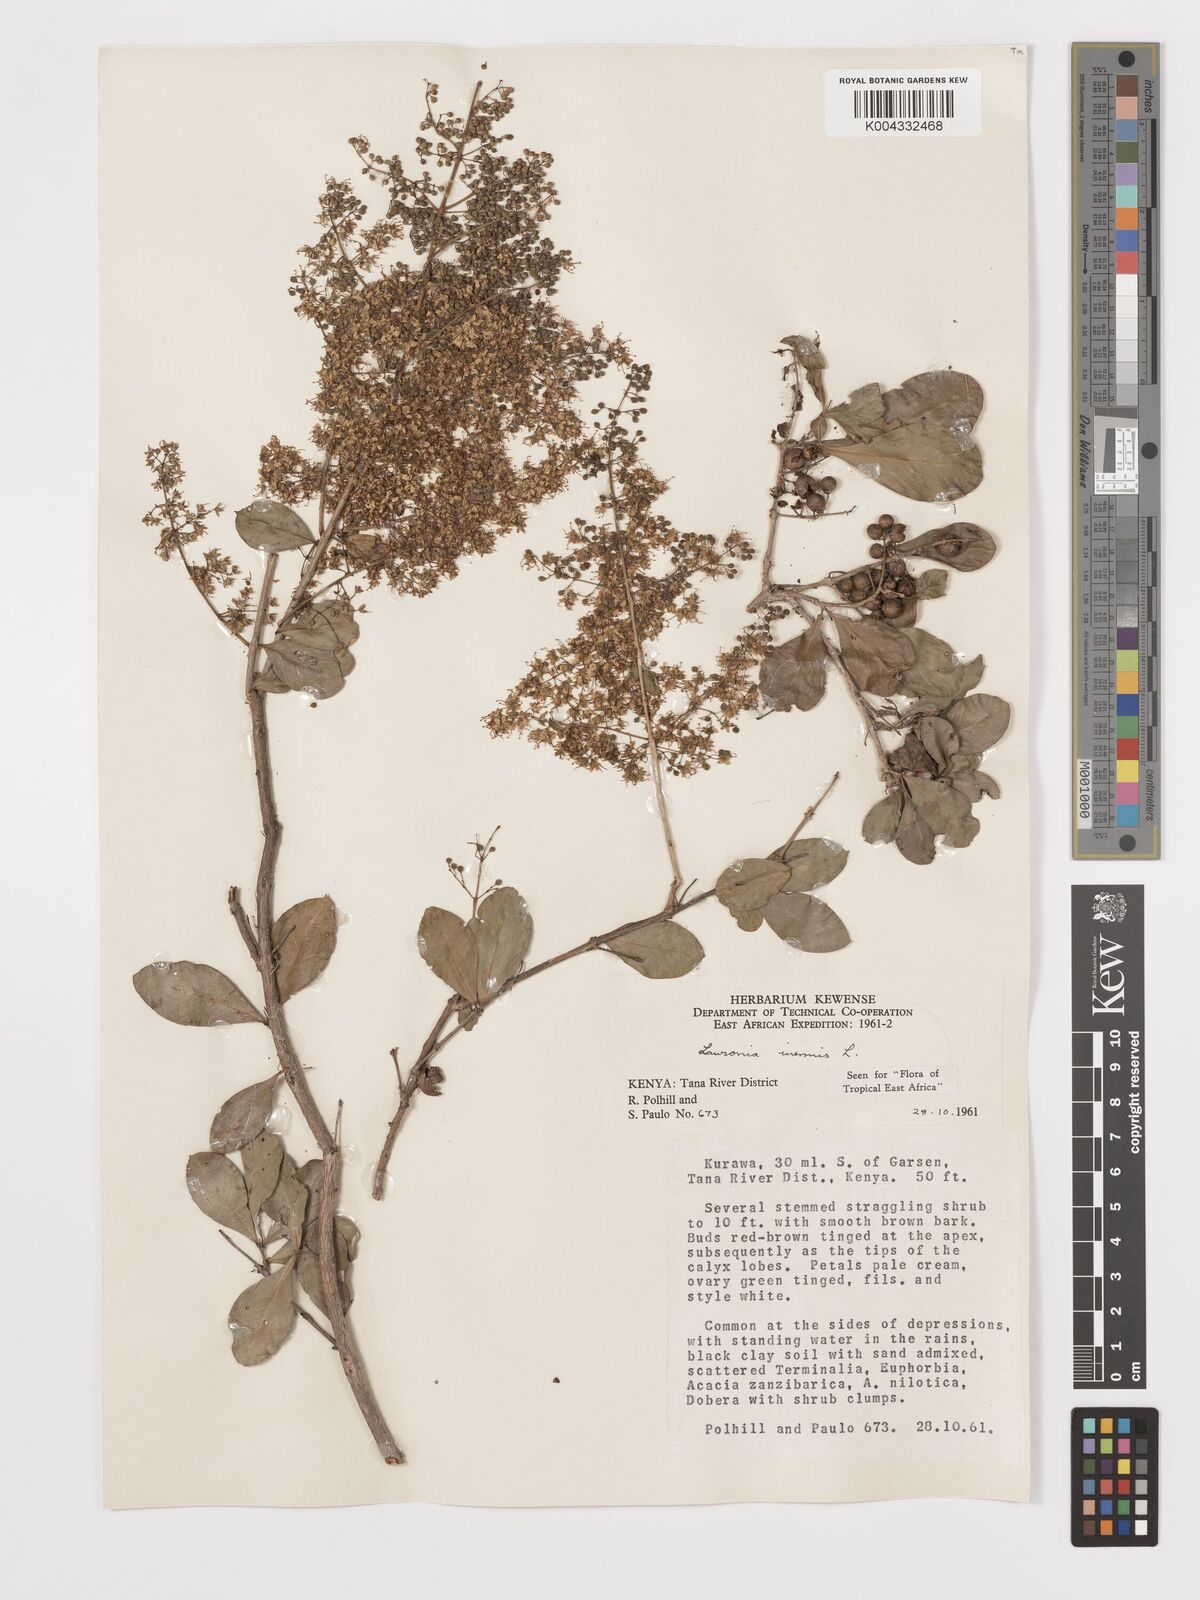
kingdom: Plantae
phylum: Tracheophyta
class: Magnoliopsida
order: Myrtales
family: Lythraceae
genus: Lawsonia
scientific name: Lawsonia inermis
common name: Henna
